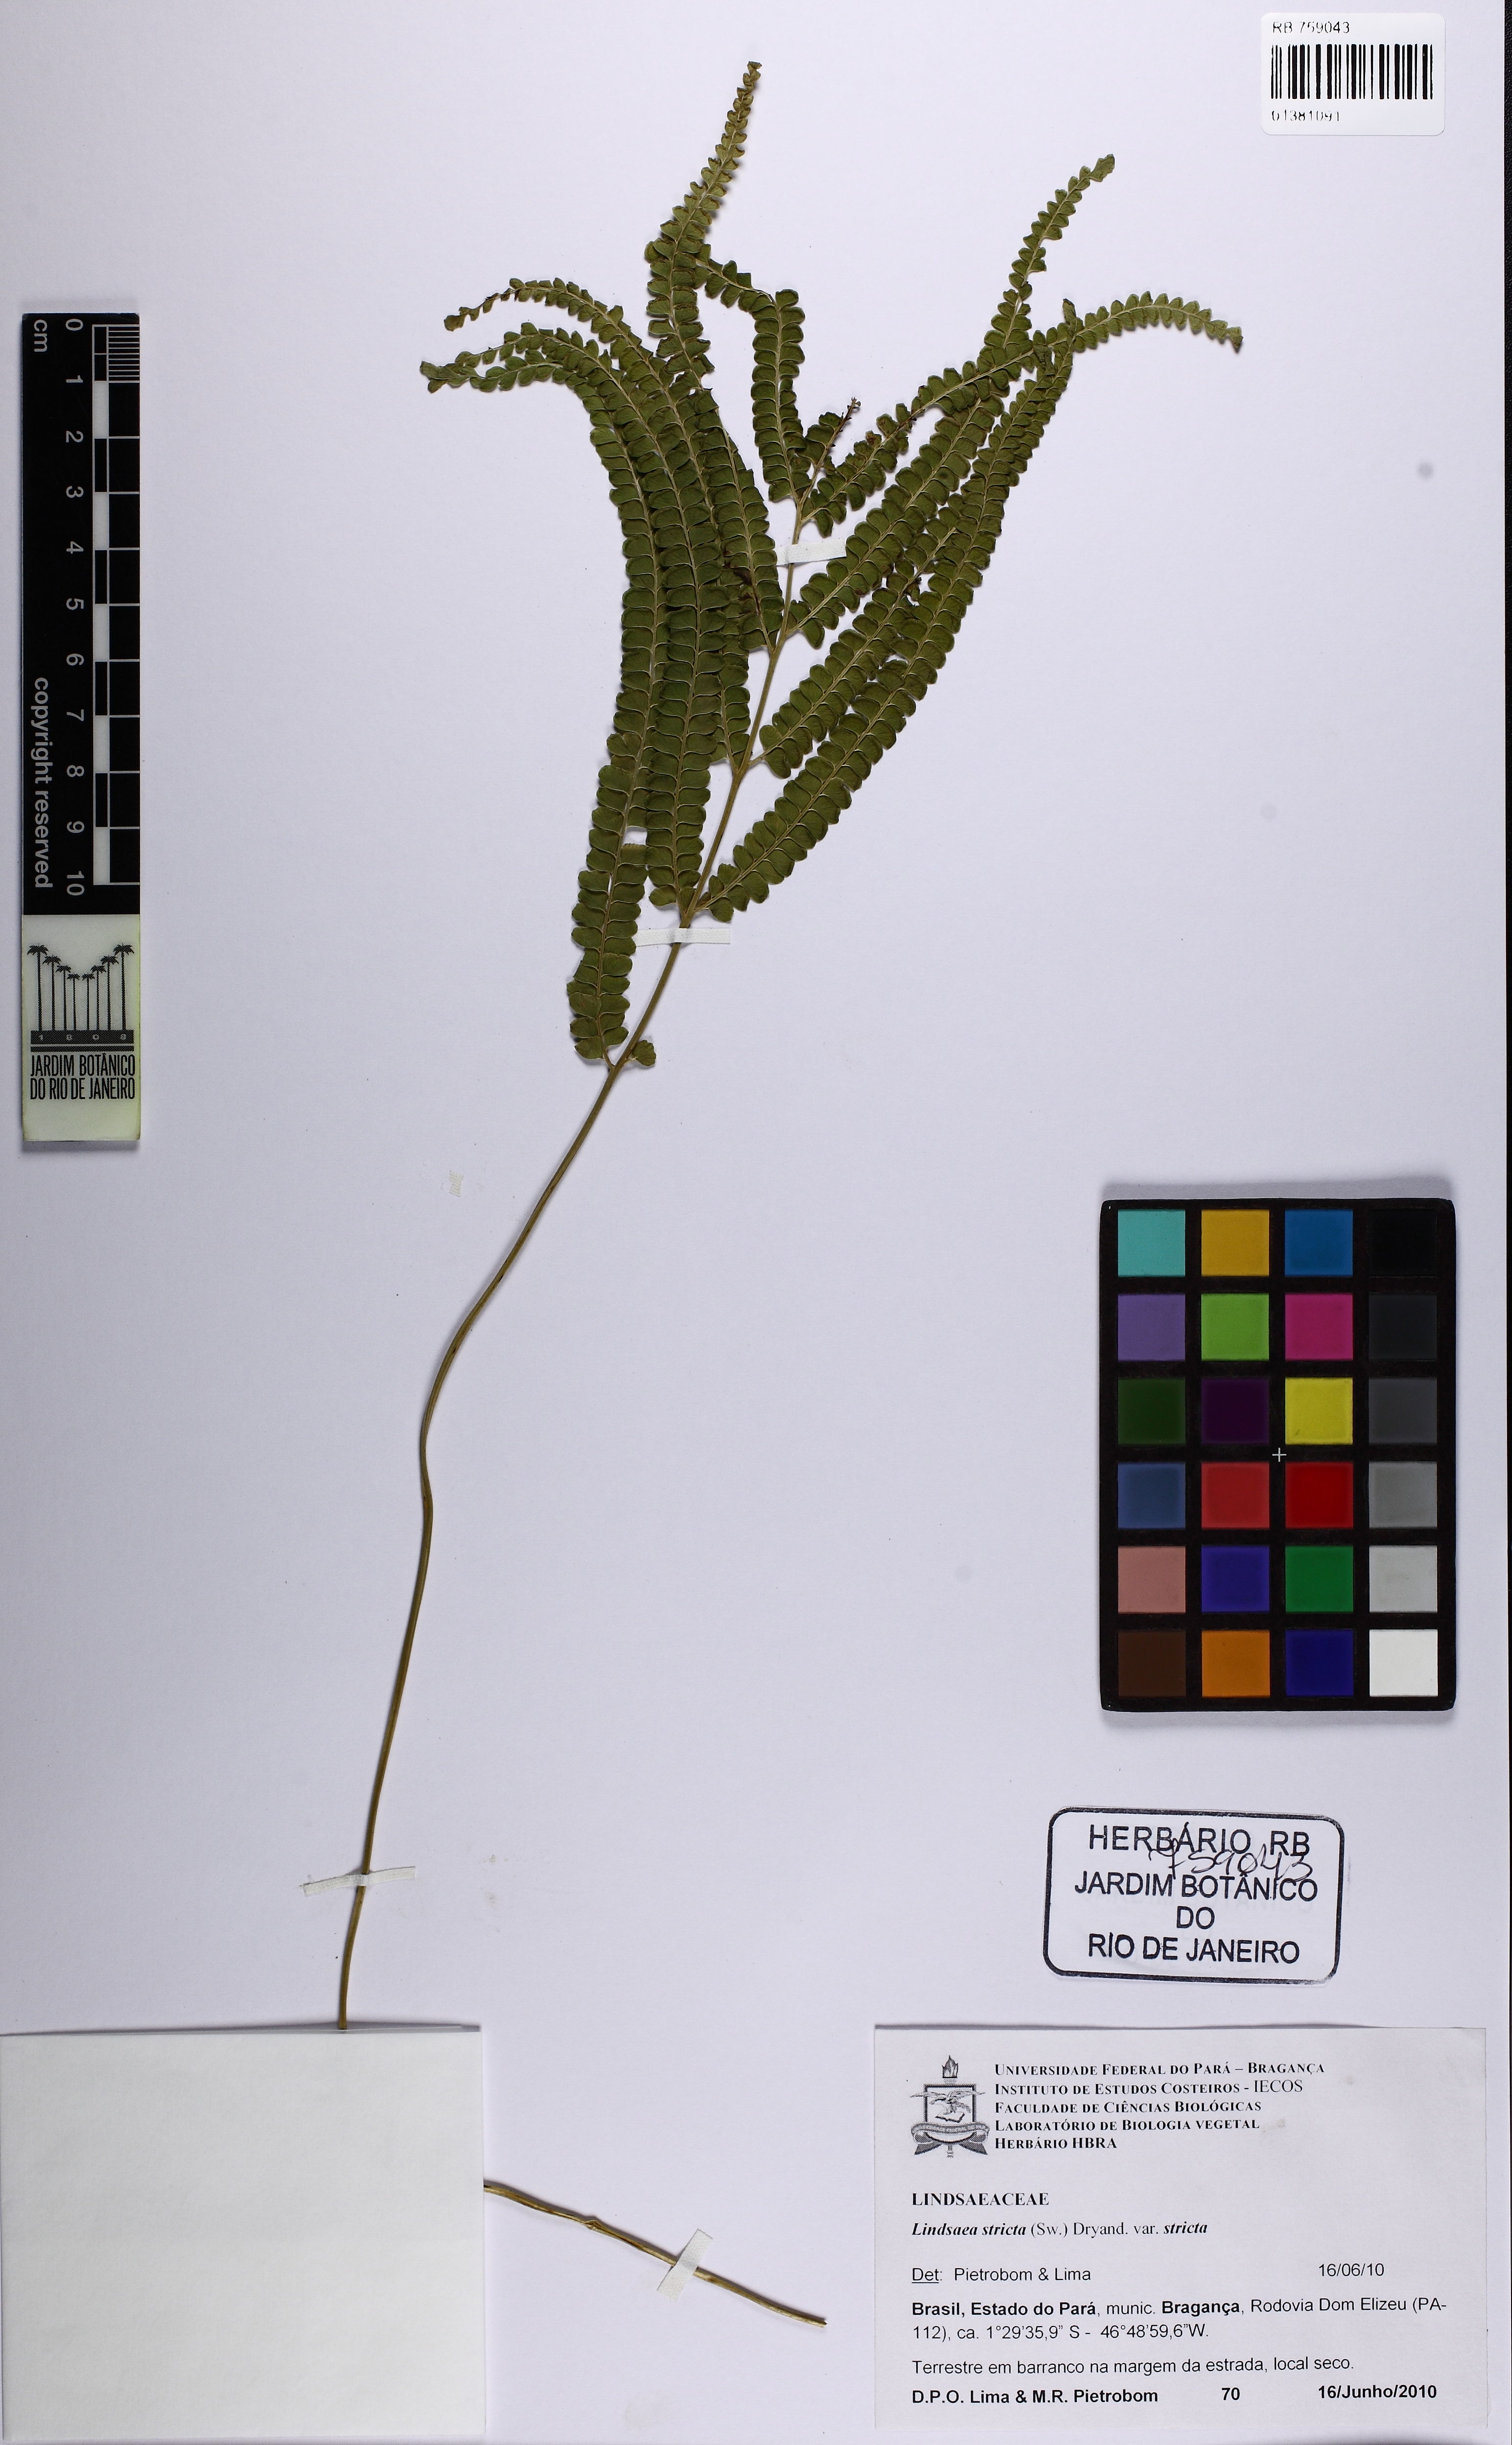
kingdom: Plantae
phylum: Tracheophyta
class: Polypodiopsida
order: Polypodiales
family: Lindsaeaceae
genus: Lindsaea
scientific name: Lindsaea stricta
